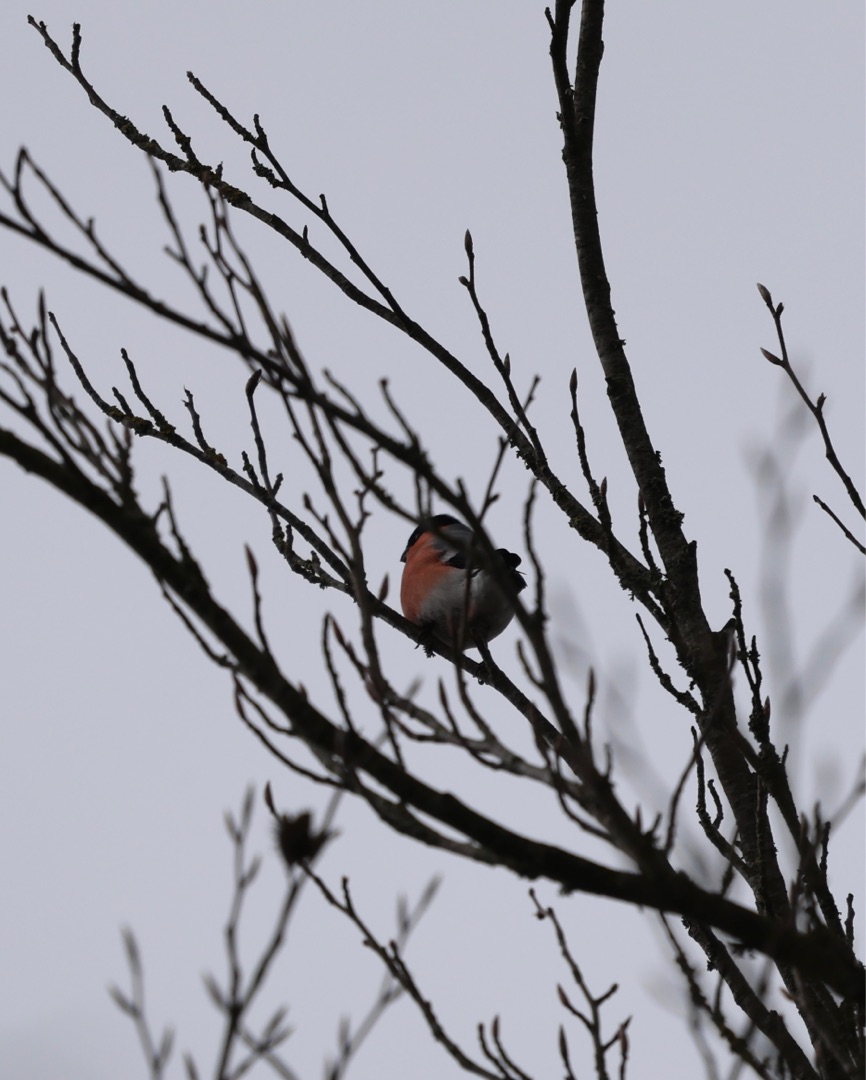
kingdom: Animalia
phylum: Chordata
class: Aves
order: Passeriformes
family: Fringillidae
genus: Pyrrhula
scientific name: Pyrrhula pyrrhula
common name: Dompap
